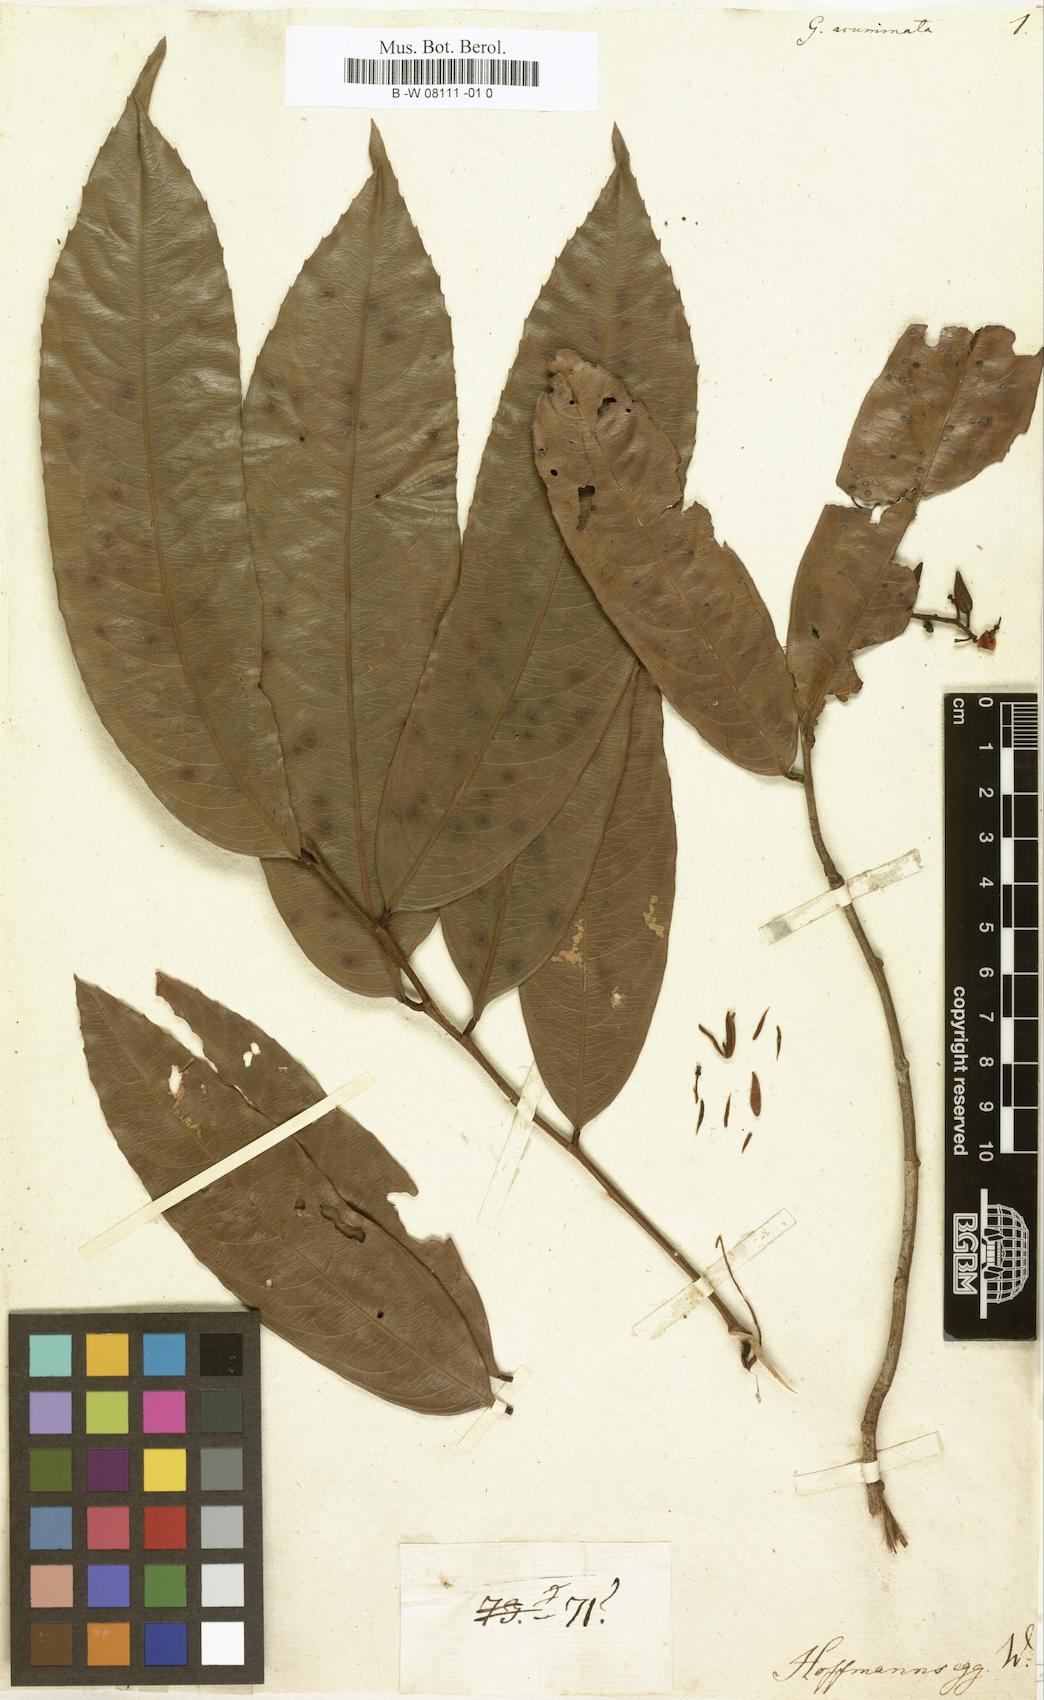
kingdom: Plantae
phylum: Tracheophyta
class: Magnoliopsida
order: Malpighiales
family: Ochnaceae
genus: Ouratea
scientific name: Ouratea
